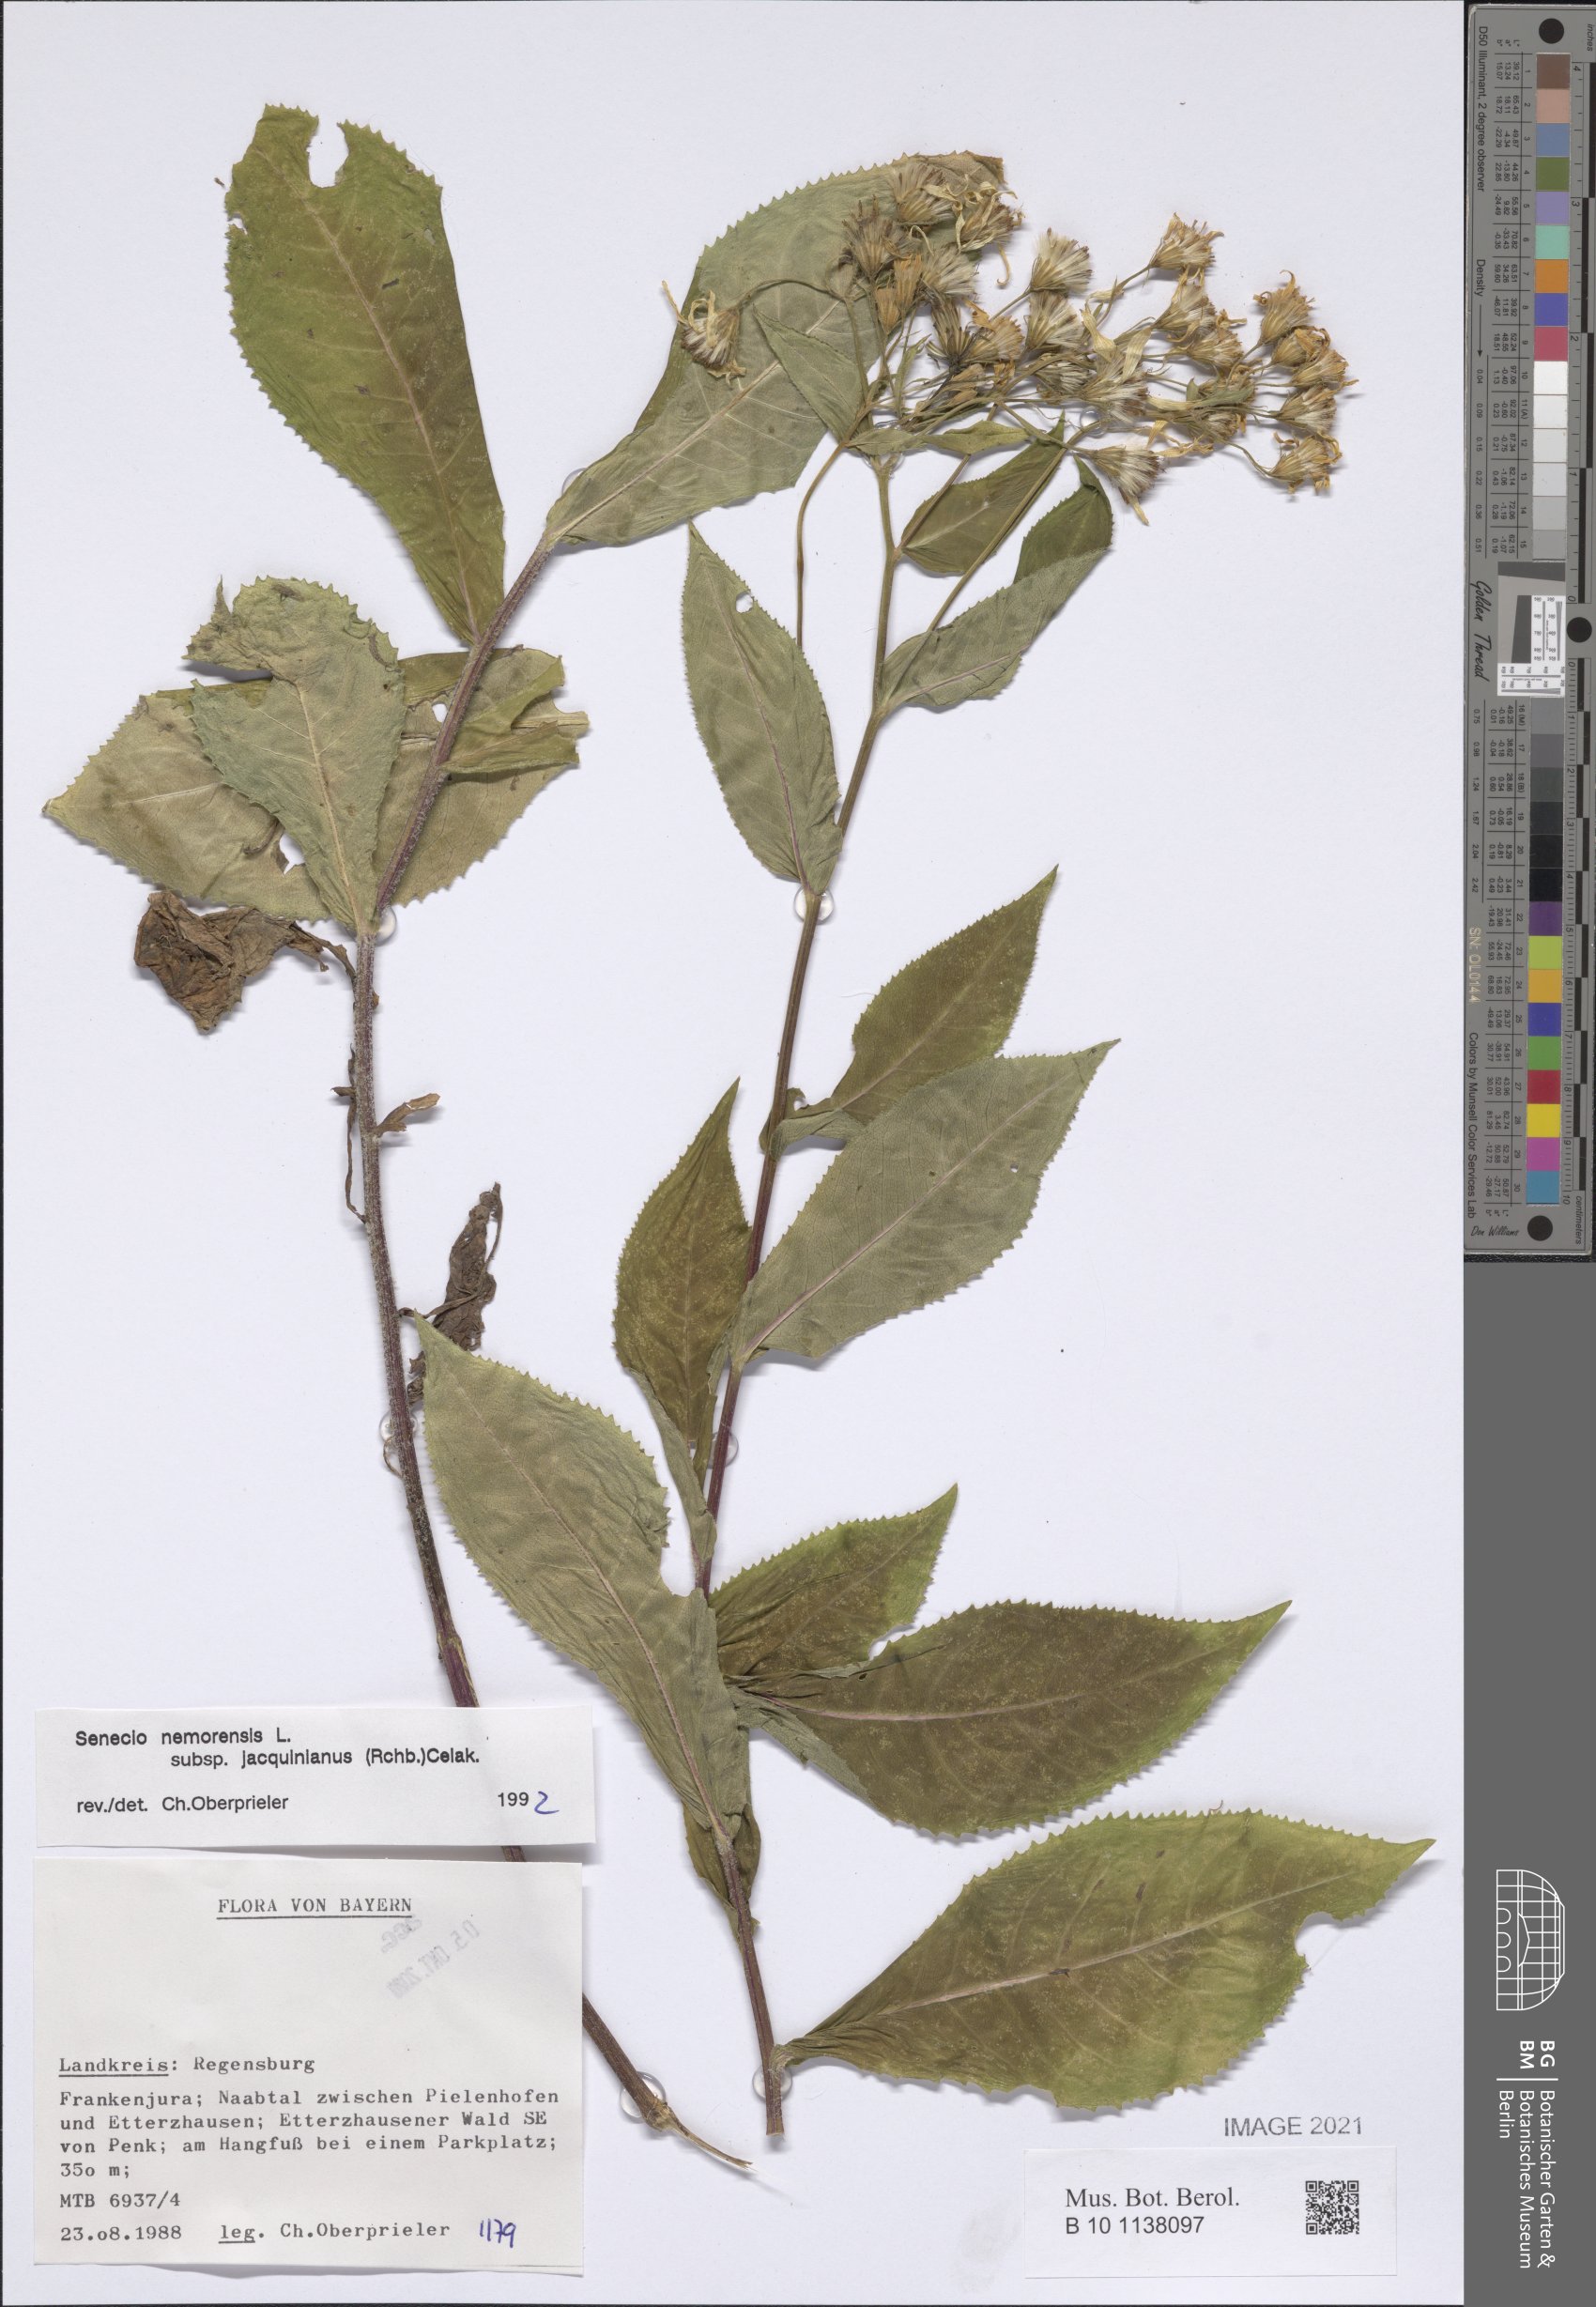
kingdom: Plantae
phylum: Tracheophyta
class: Magnoliopsida
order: Asterales
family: Asteraceae
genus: Senecio
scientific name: Senecio germanicus
